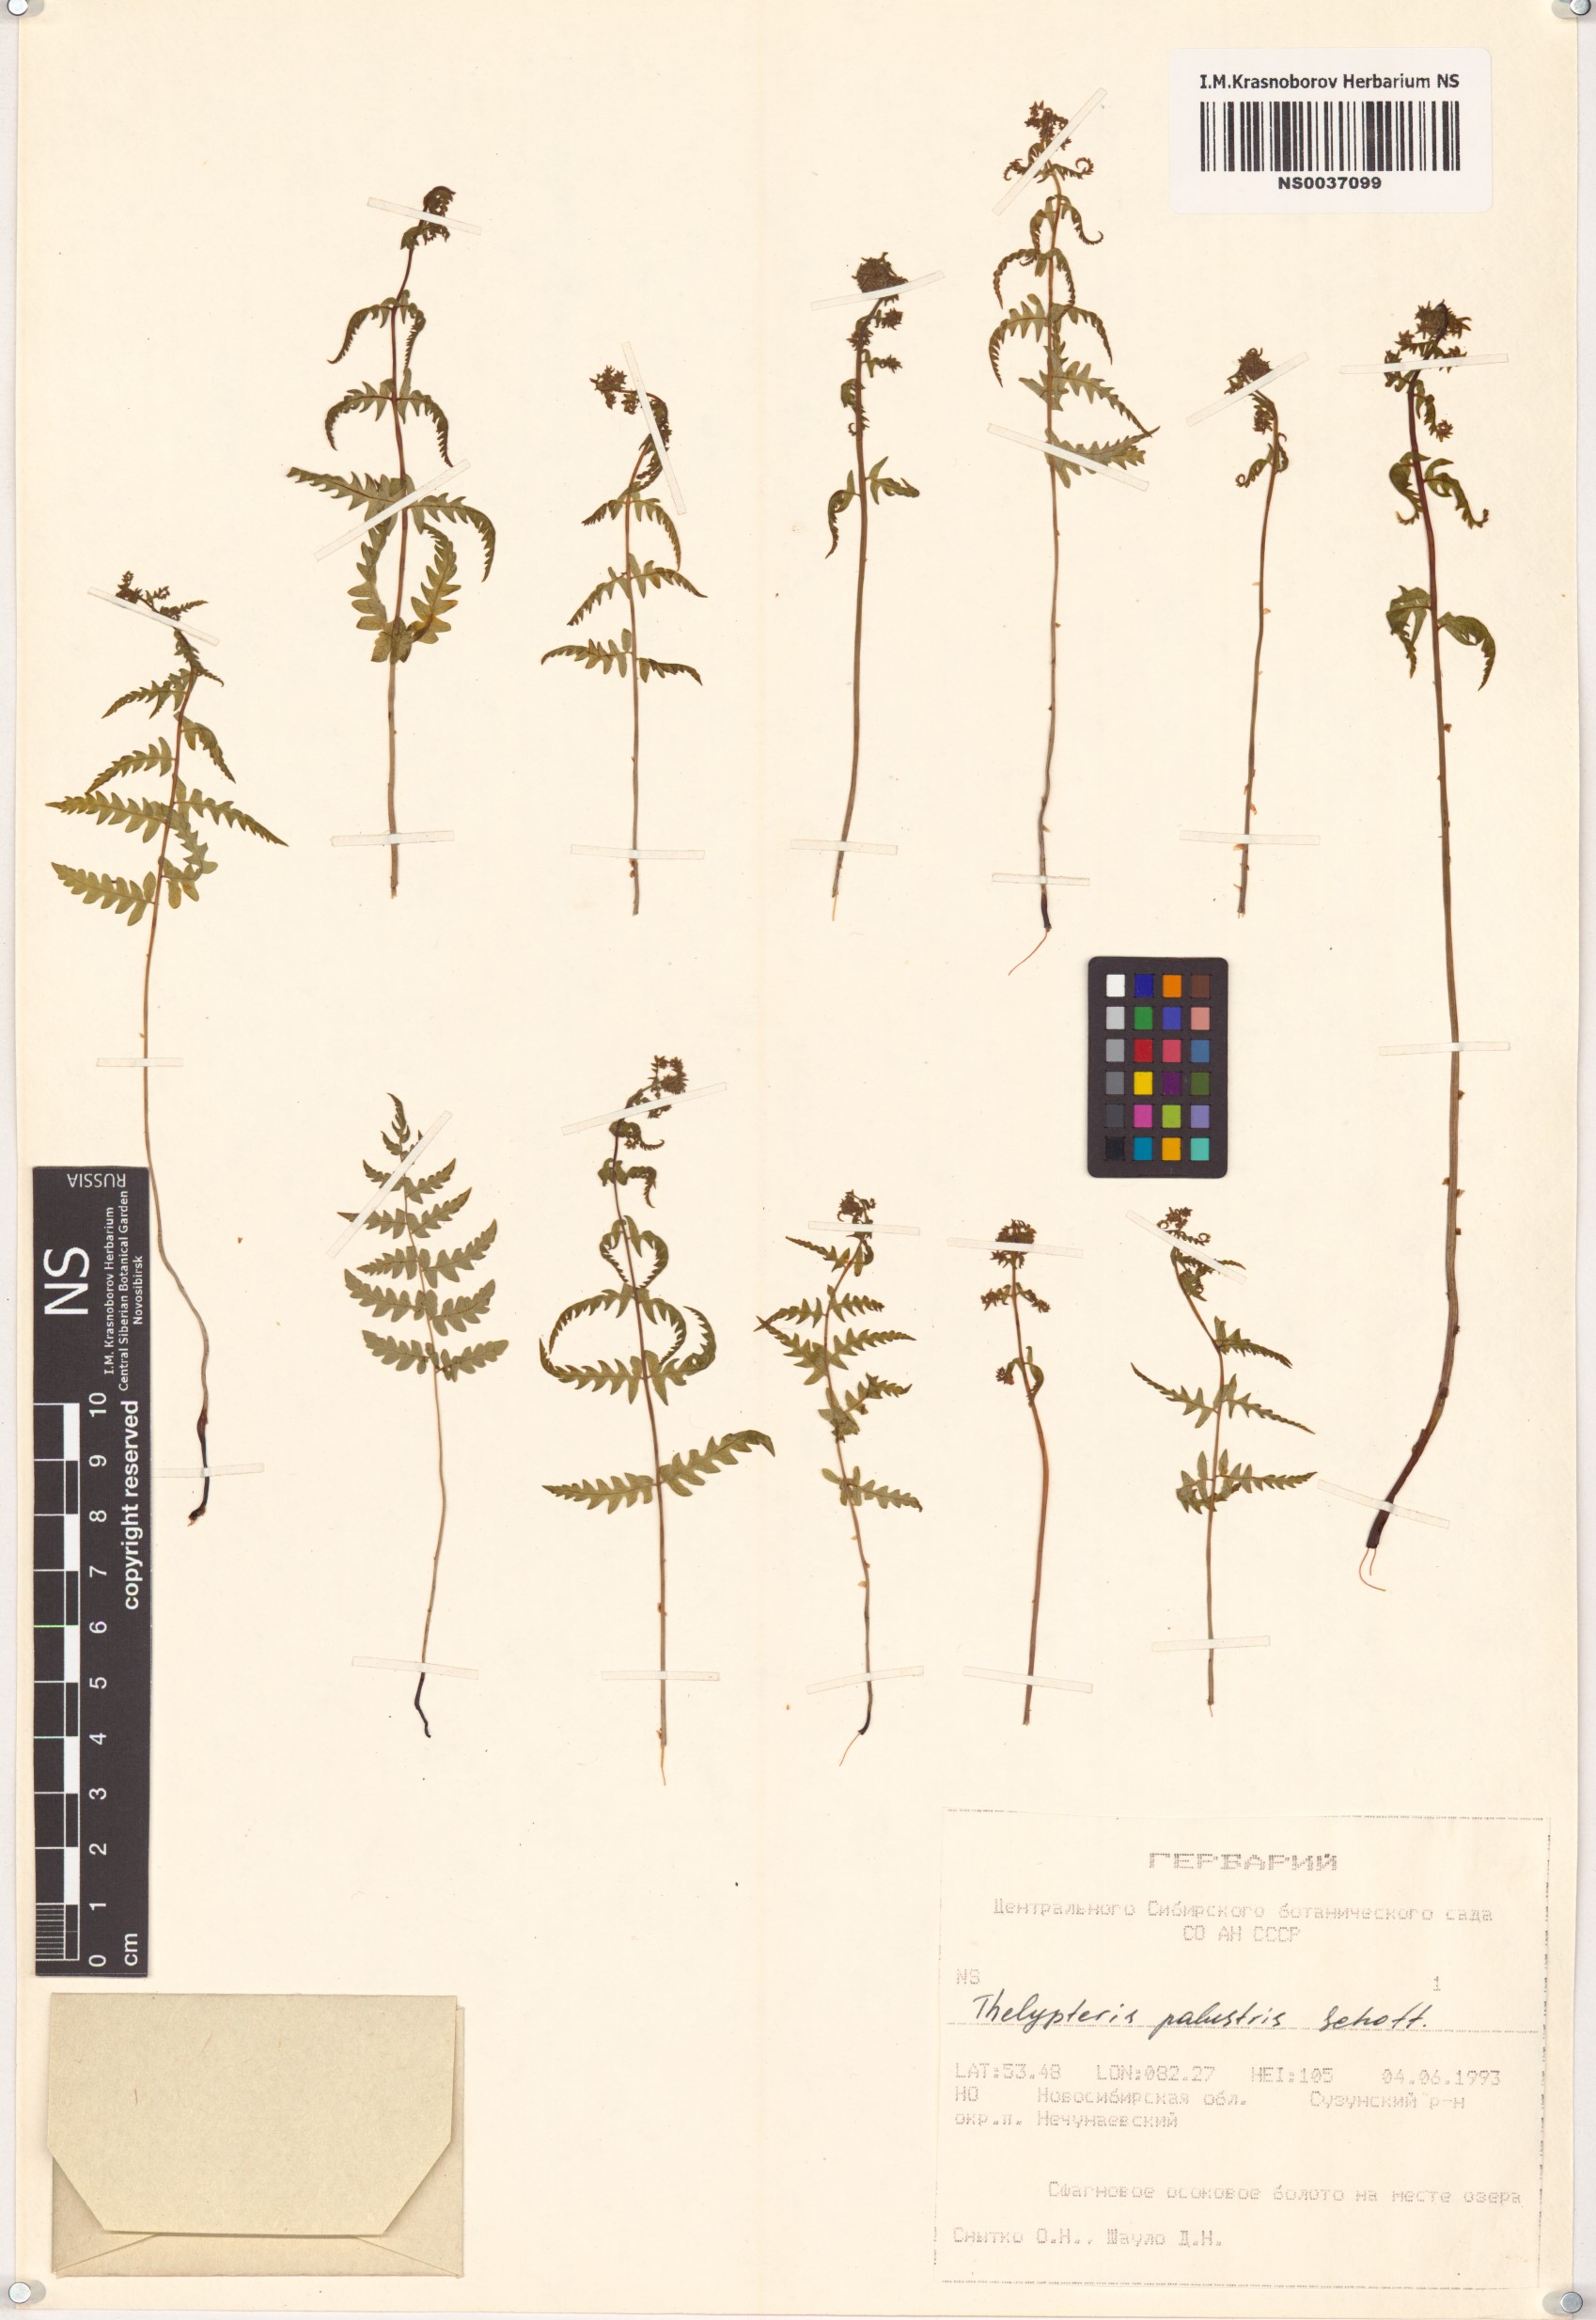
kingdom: Plantae
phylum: Tracheophyta
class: Polypodiopsida
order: Polypodiales
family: Thelypteridaceae
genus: Thelypteris
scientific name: Thelypteris palustris
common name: Marsh fern
